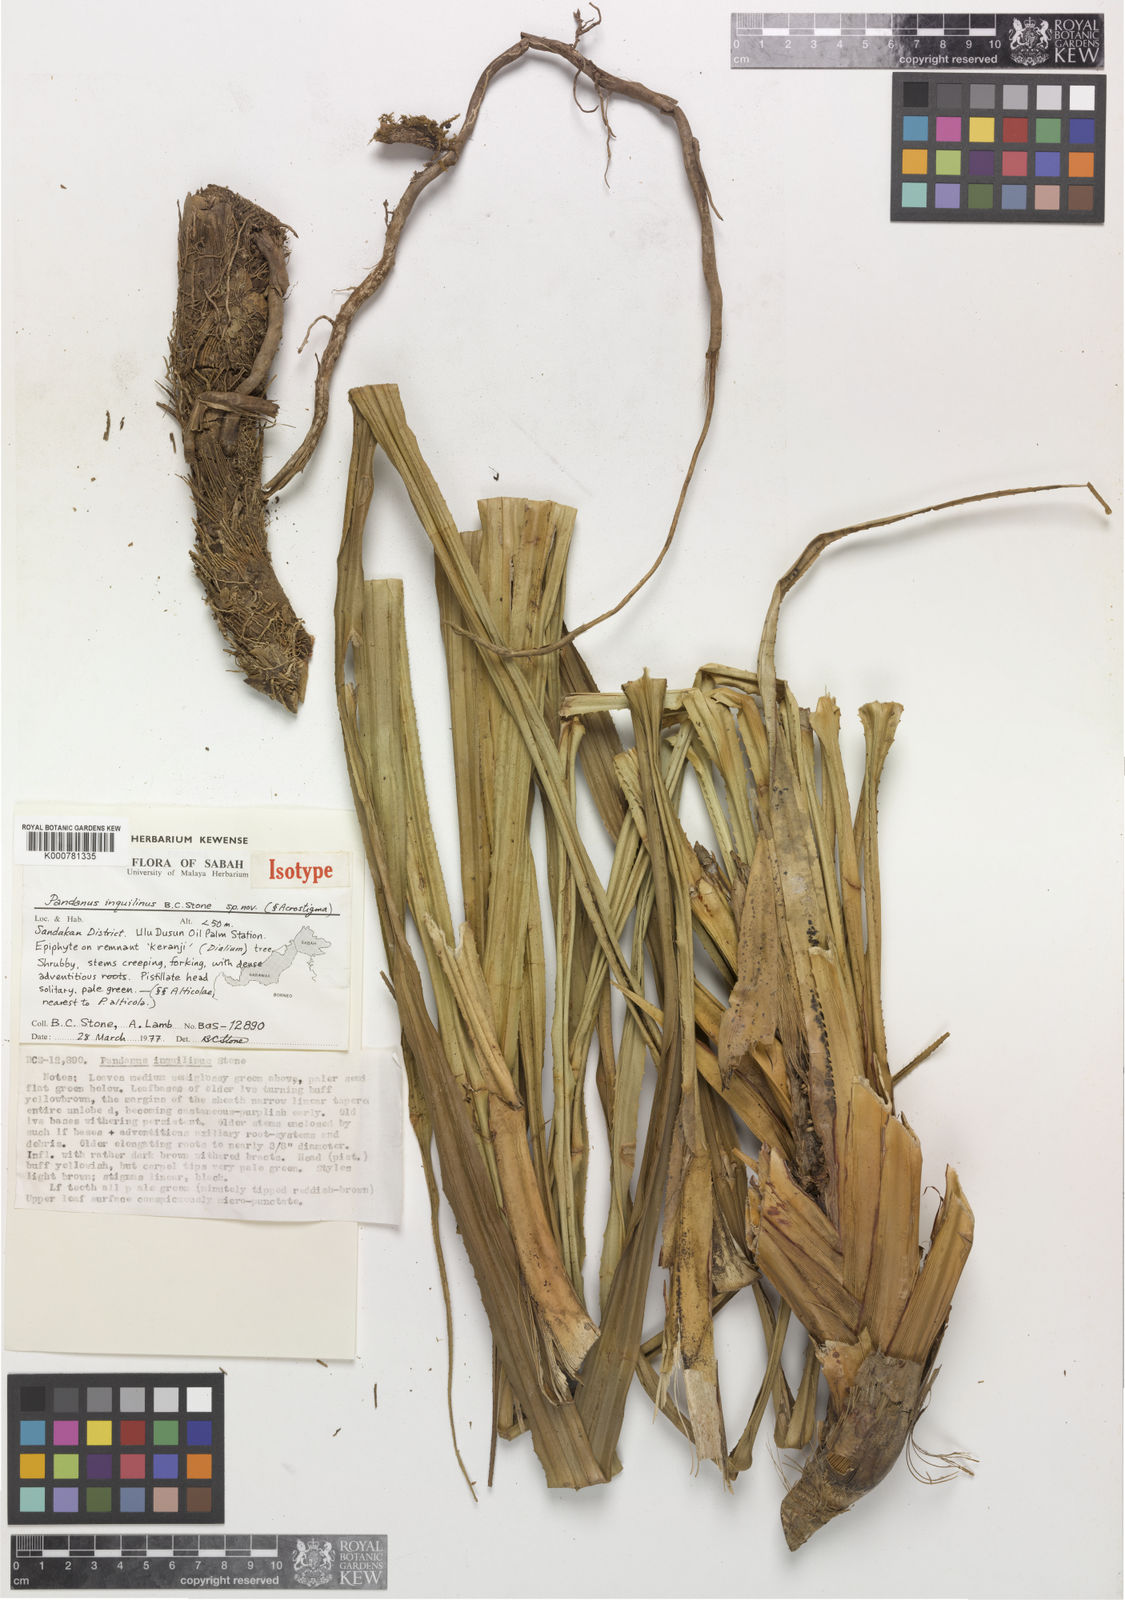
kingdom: Plantae
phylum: Tracheophyta
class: Liliopsida
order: Pandanales
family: Pandanaceae
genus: Benstonea
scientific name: Benstonea inquilina
